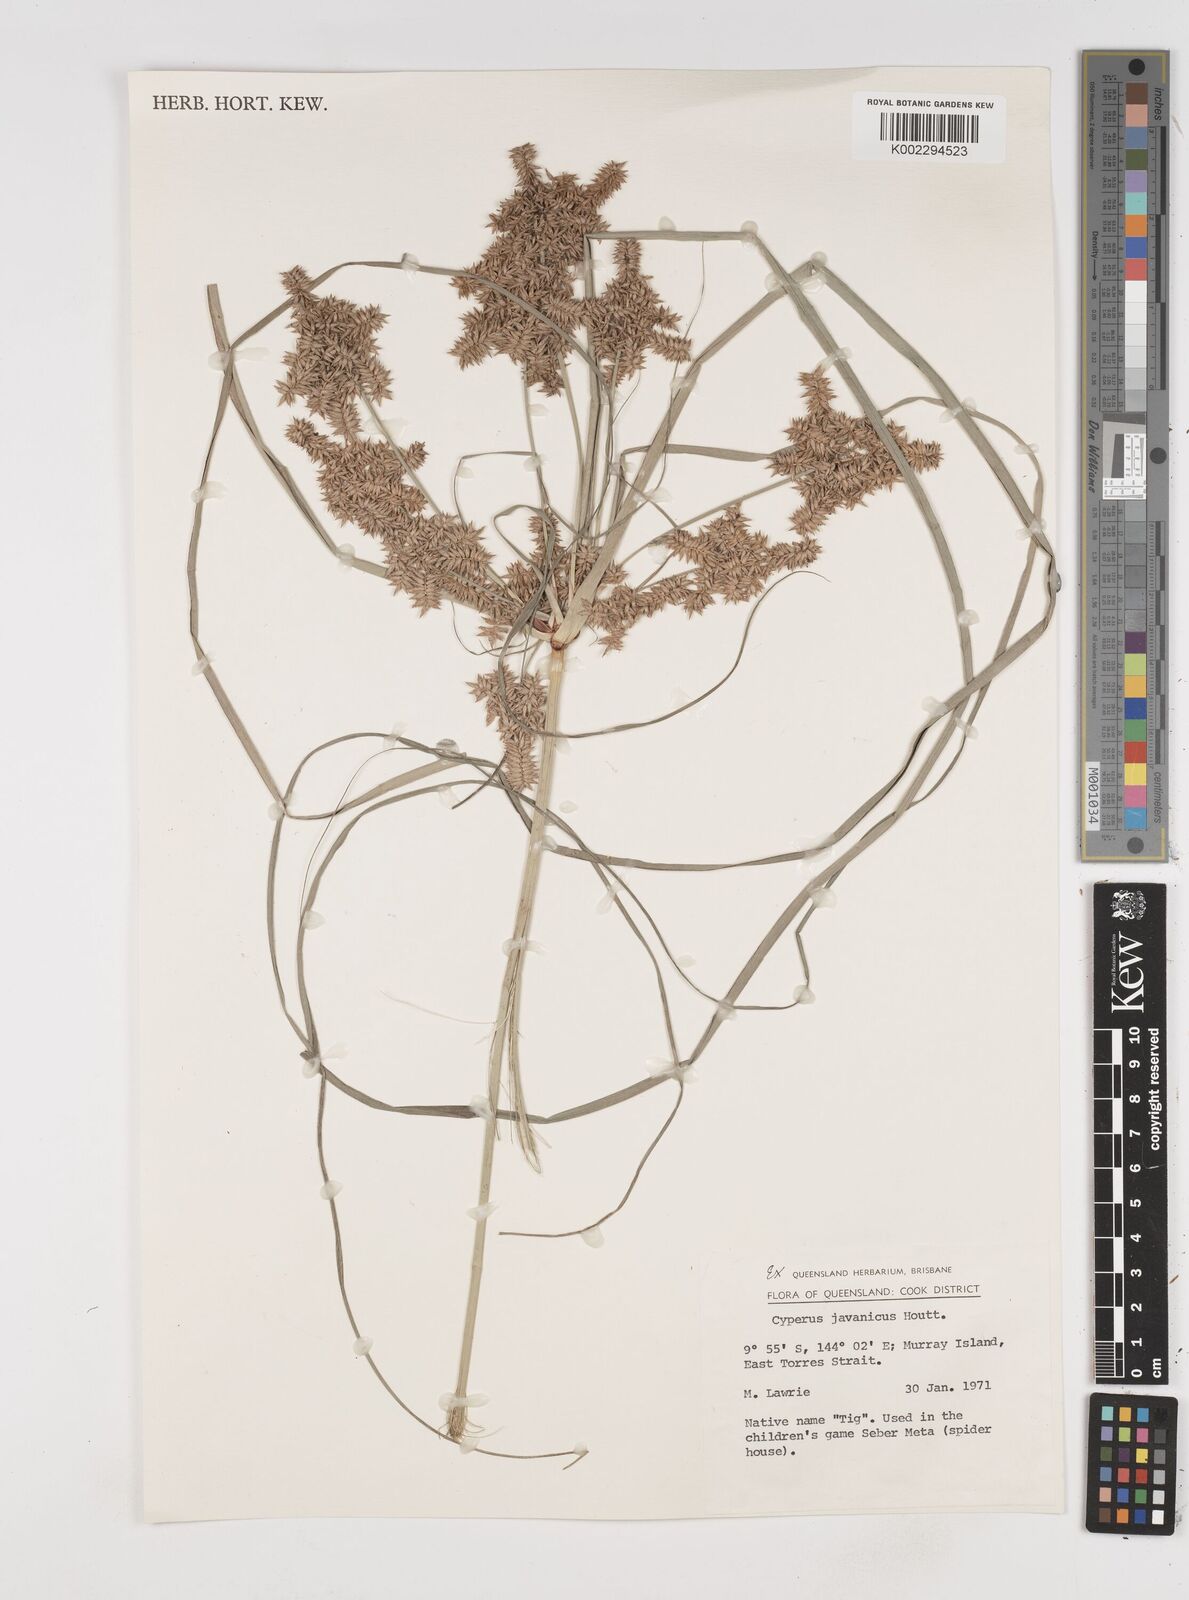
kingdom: Plantae
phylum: Tracheophyta
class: Liliopsida
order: Poales
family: Cyperaceae
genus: Cyperus
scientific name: Cyperus javanicus
